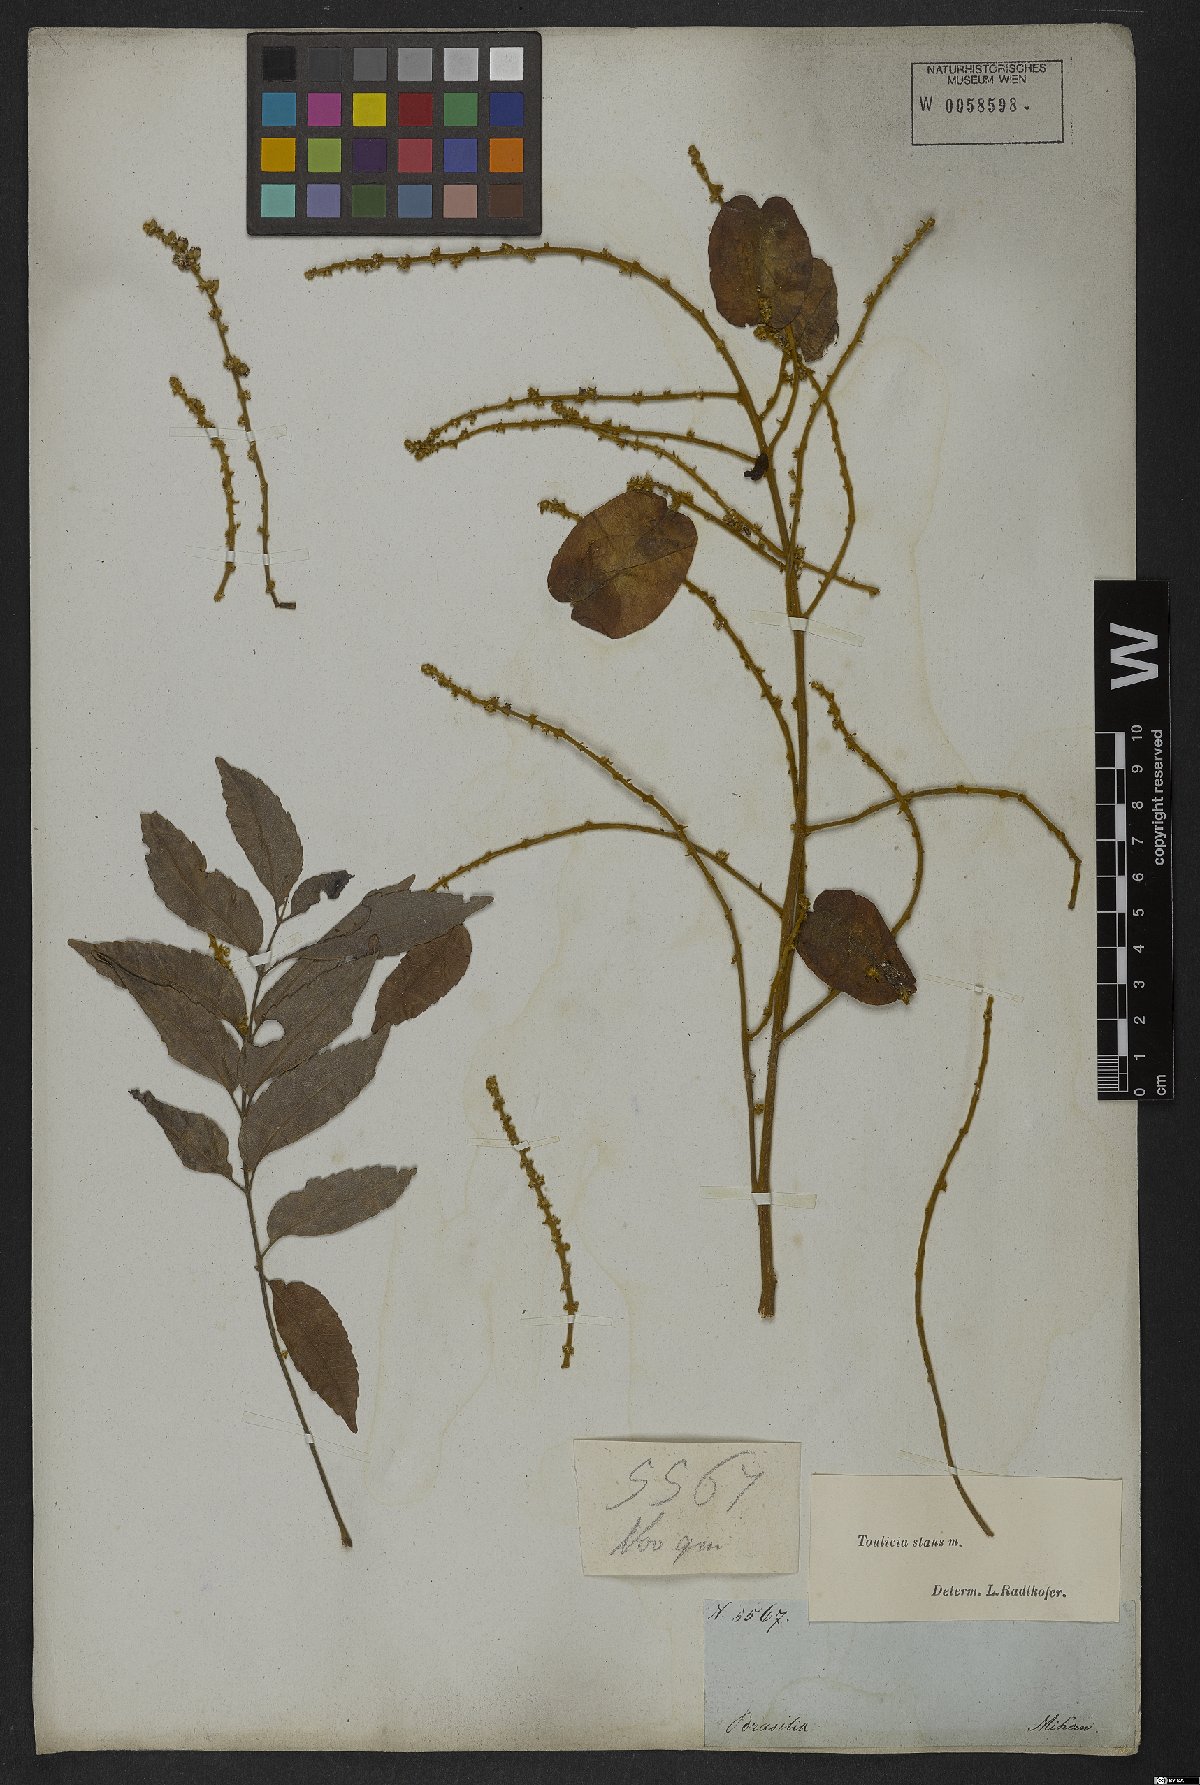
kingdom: Plantae
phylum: Tracheophyta
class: Magnoliopsida
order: Sapindales
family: Sapindaceae
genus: Toulicia
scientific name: Toulicia stans
